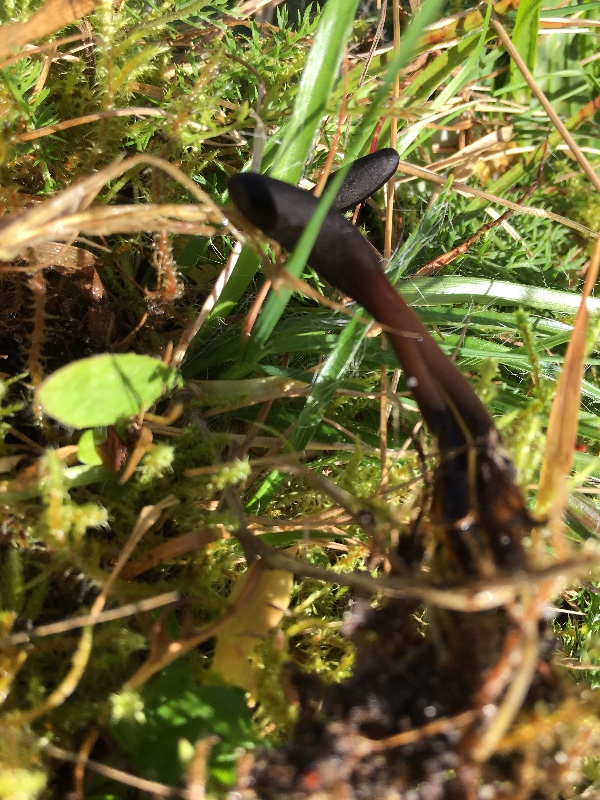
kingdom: Fungi
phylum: Ascomycota
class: Geoglossomycetes
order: Geoglossales
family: Geoglossaceae
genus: Glutinoglossum
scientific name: Glutinoglossum glutinosum
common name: slimet jordtunge
